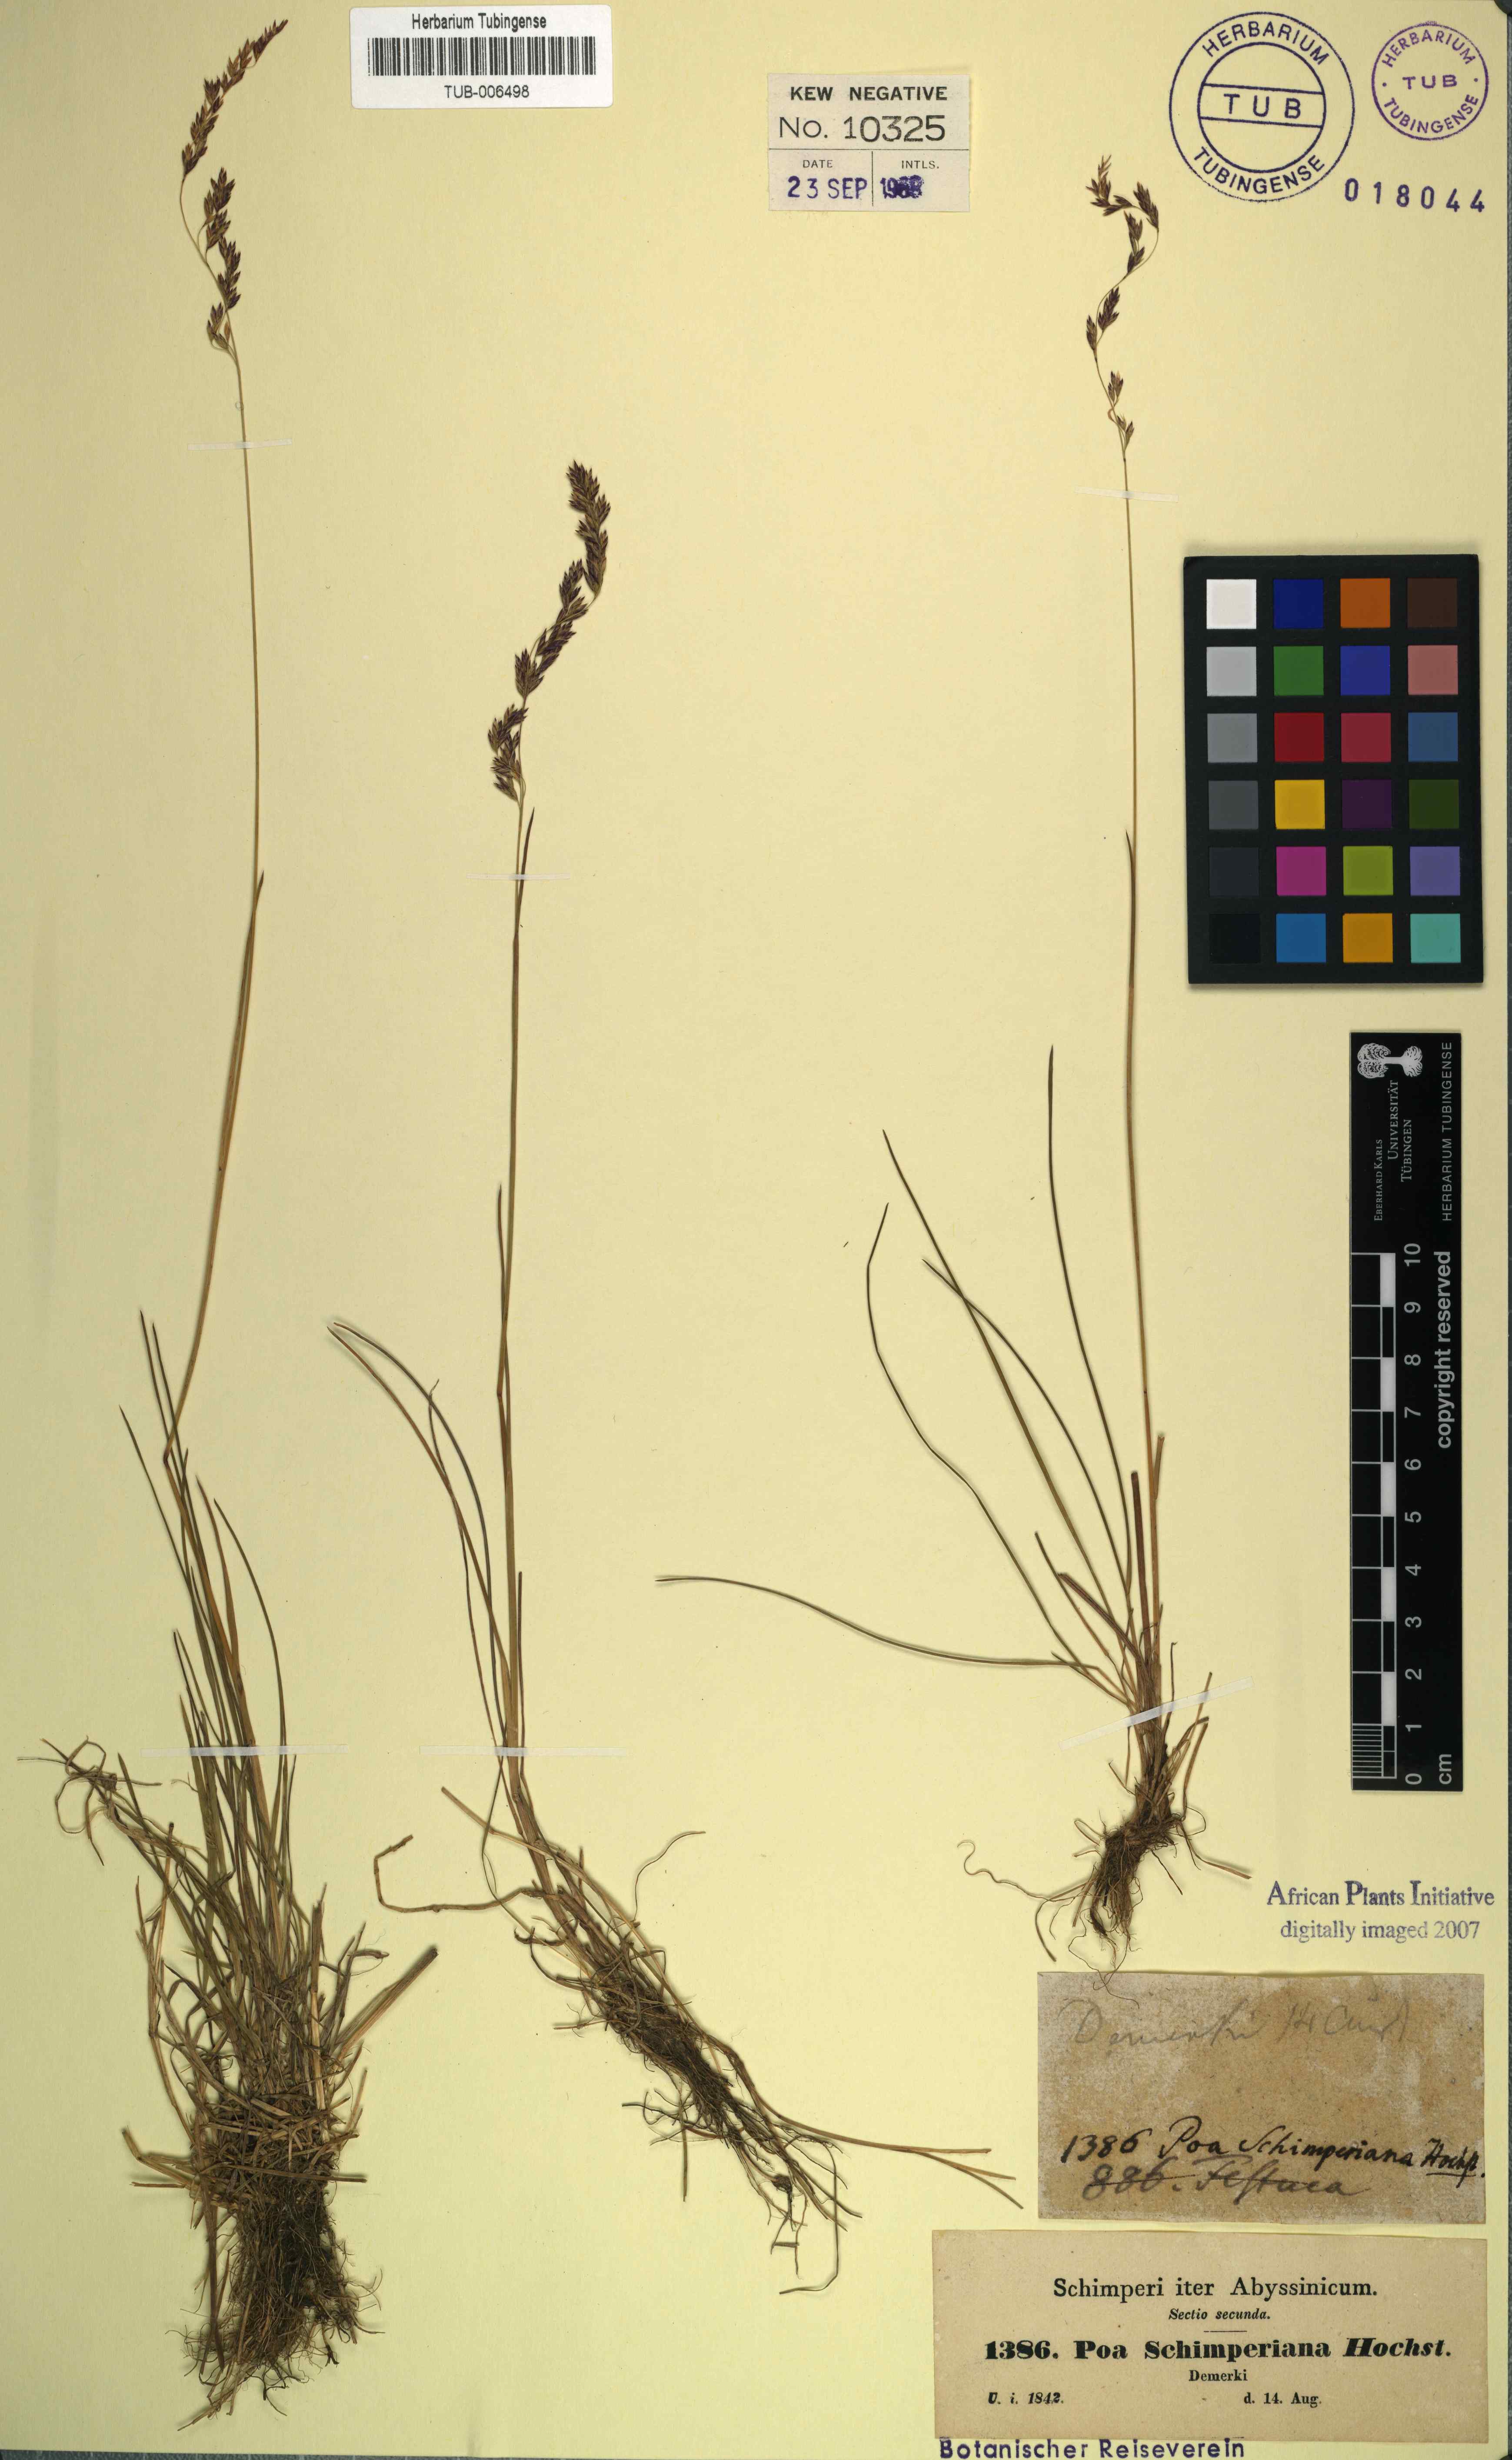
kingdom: Plantae
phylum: Tracheophyta
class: Liliopsida
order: Poales
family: Poaceae
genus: Poa
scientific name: Poa schimperiana
